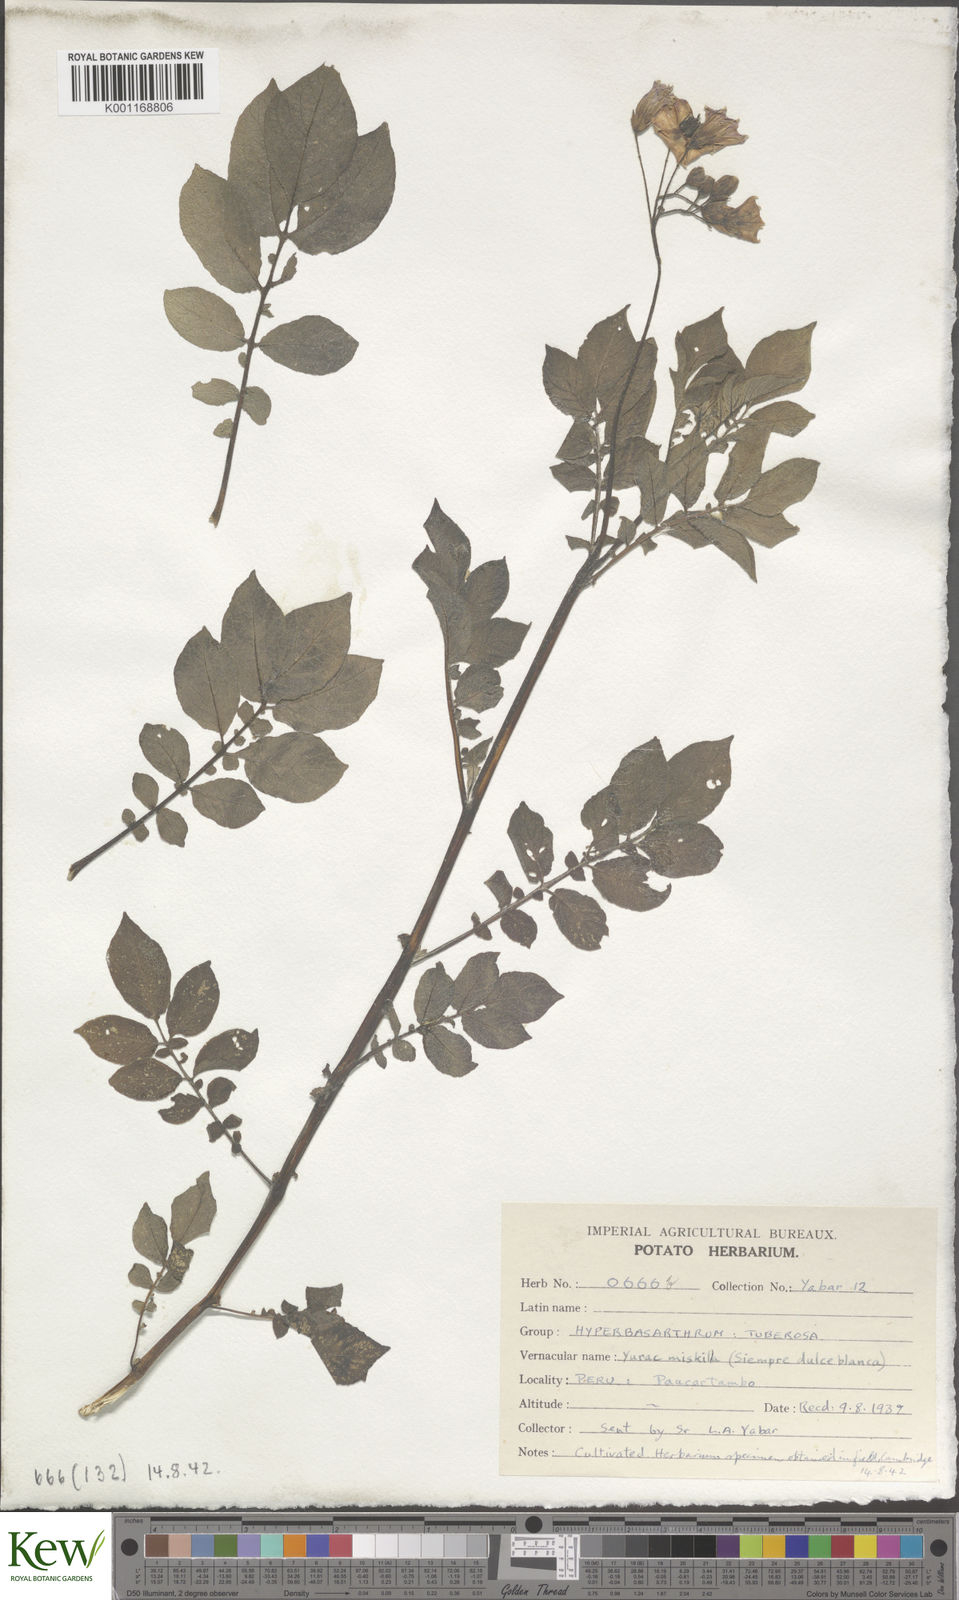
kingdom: Plantae
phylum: Tracheophyta
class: Magnoliopsida
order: Solanales
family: Solanaceae
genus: Solanum
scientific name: Solanum chaucha
